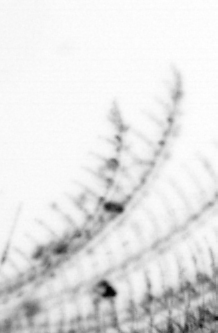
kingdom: Animalia
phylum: Annelida
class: Polychaeta
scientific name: Polychaeta
